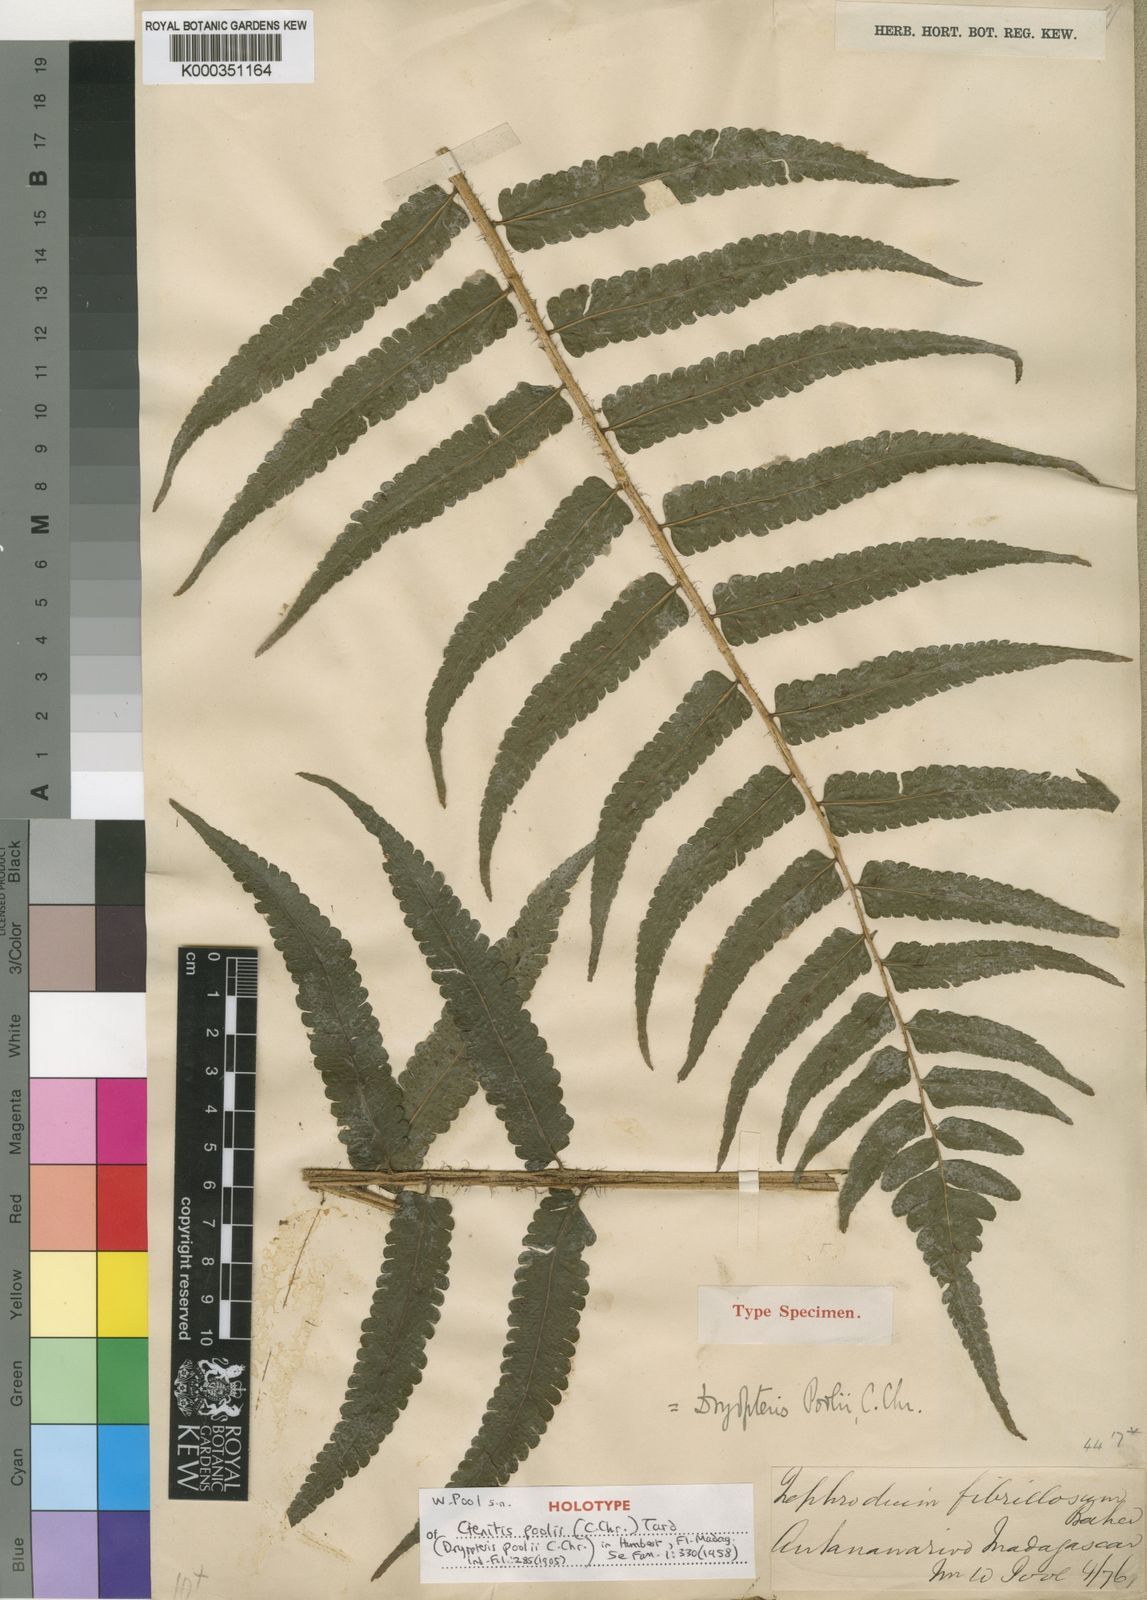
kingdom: Plantae
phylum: Tracheophyta
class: Polypodiopsida
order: Polypodiales
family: Dryopteridaceae
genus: Ctenitis
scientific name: Ctenitis fibrillosa
